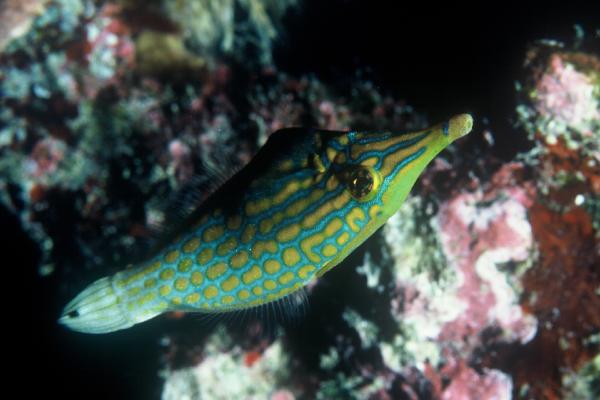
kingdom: Animalia
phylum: Chordata
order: Tetraodontiformes
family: Monacanthidae
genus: Oxymonacanthus
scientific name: Oxymonacanthus longirostris
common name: Beaked leatherjacket
